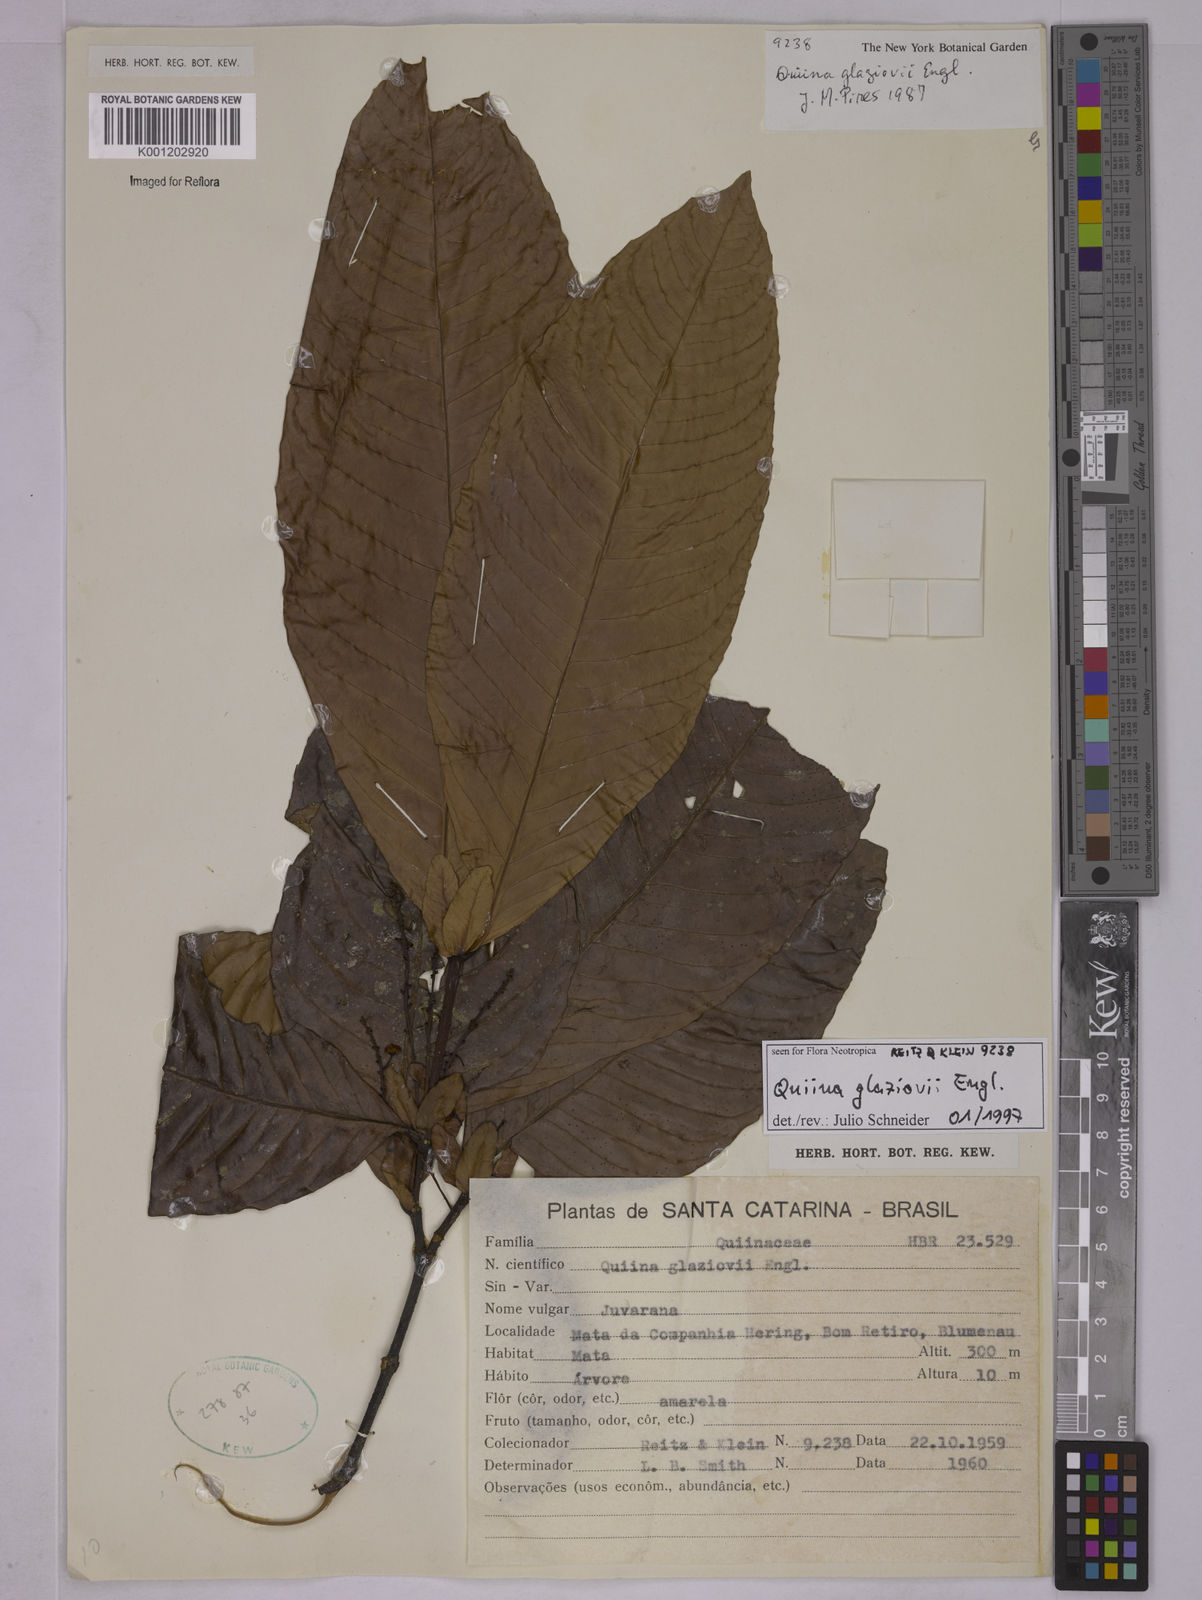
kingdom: Plantae
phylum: Tracheophyta
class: Magnoliopsida
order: Malpighiales
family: Quiinaceae
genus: Quiina
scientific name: Quiina glaziovii
